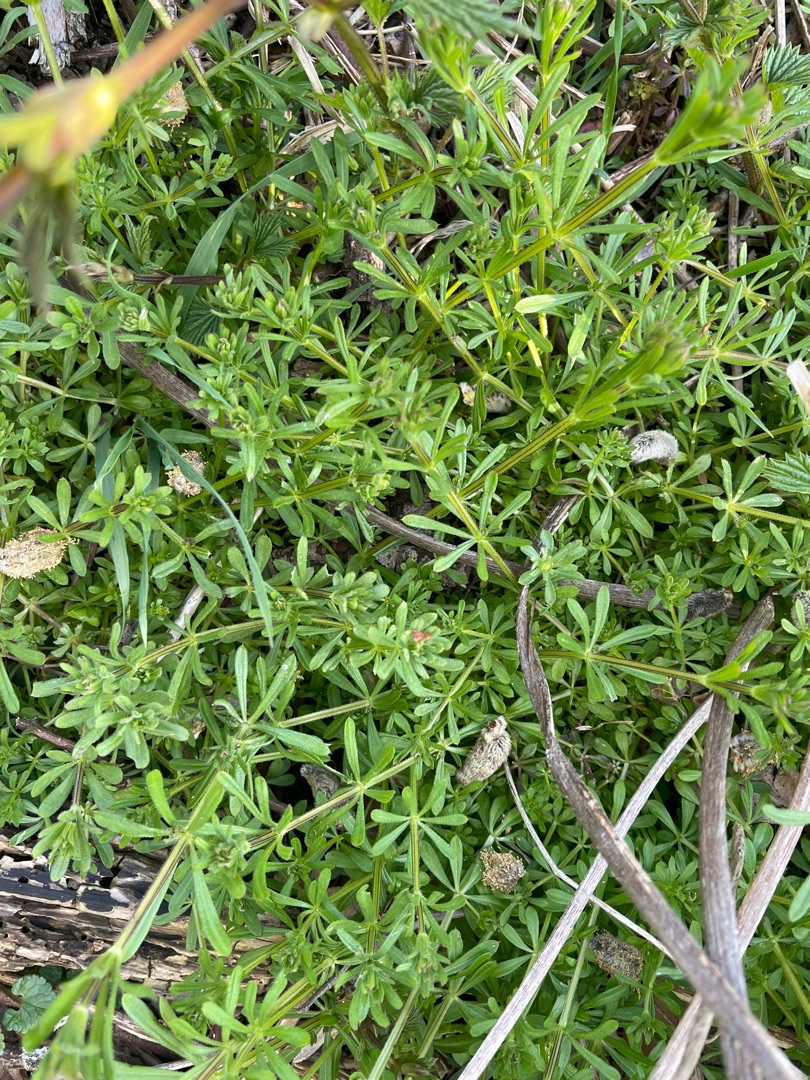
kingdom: Plantae
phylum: Tracheophyta
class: Magnoliopsida
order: Gentianales
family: Rubiaceae
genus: Galium
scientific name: Galium aparine
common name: Burre-snerre
